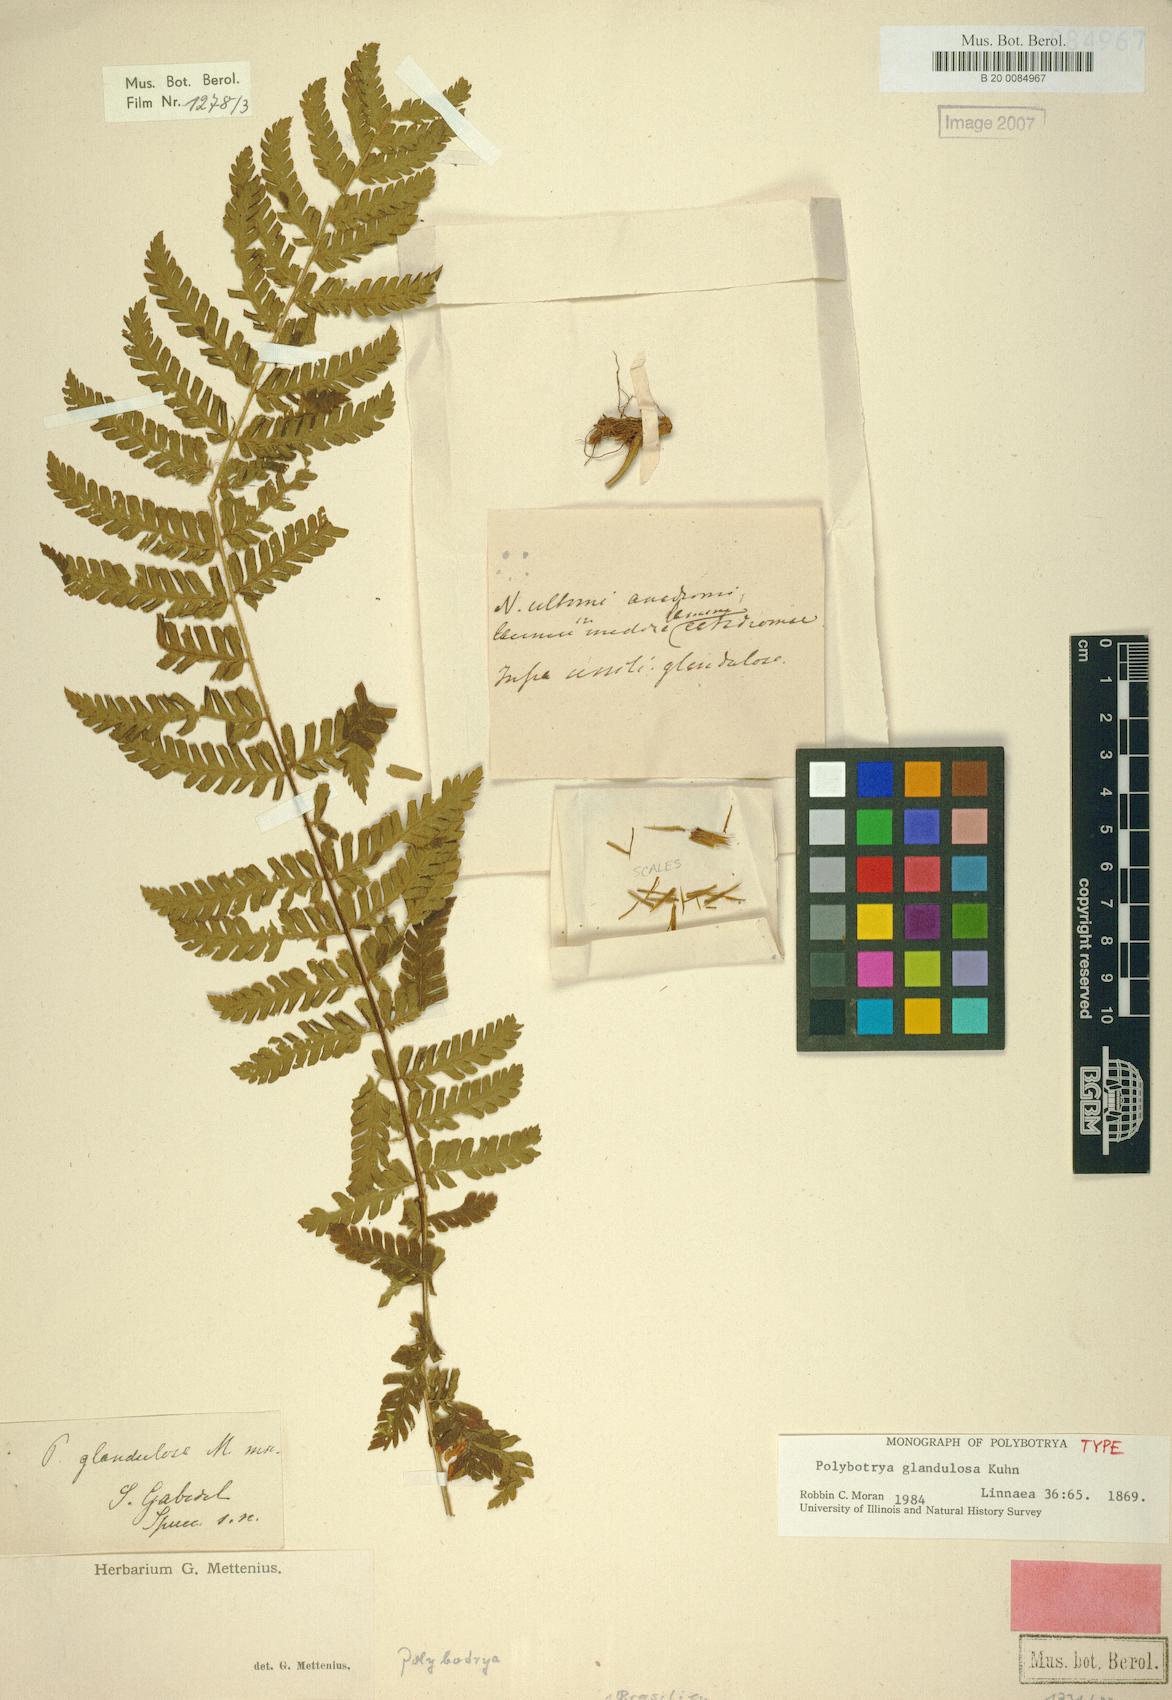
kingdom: Plantae
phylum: Tracheophyta
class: Polypodiopsida
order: Polypodiales
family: Dryopteridaceae
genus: Polybotrya
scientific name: Polybotrya glandulosa
